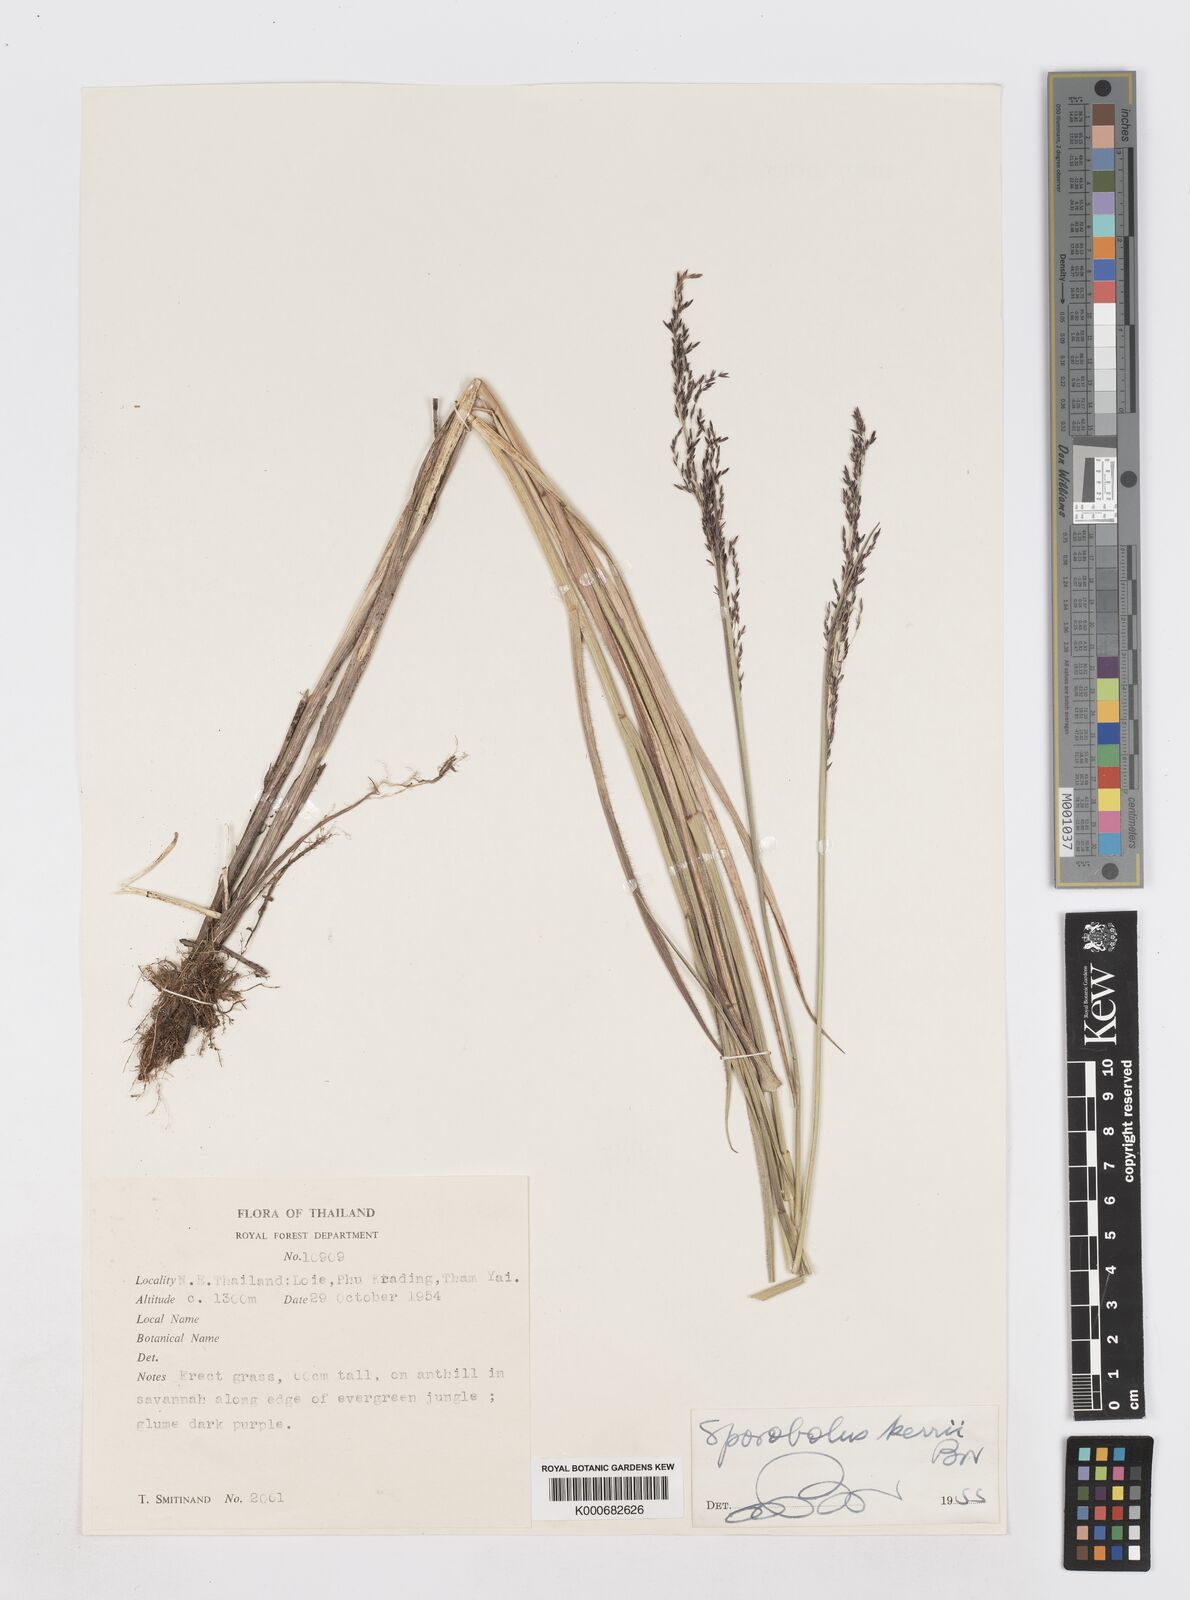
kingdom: Plantae
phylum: Tracheophyta
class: Liliopsida
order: Poales
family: Poaceae
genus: Sporobolus
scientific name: Sporobolus kerrii
